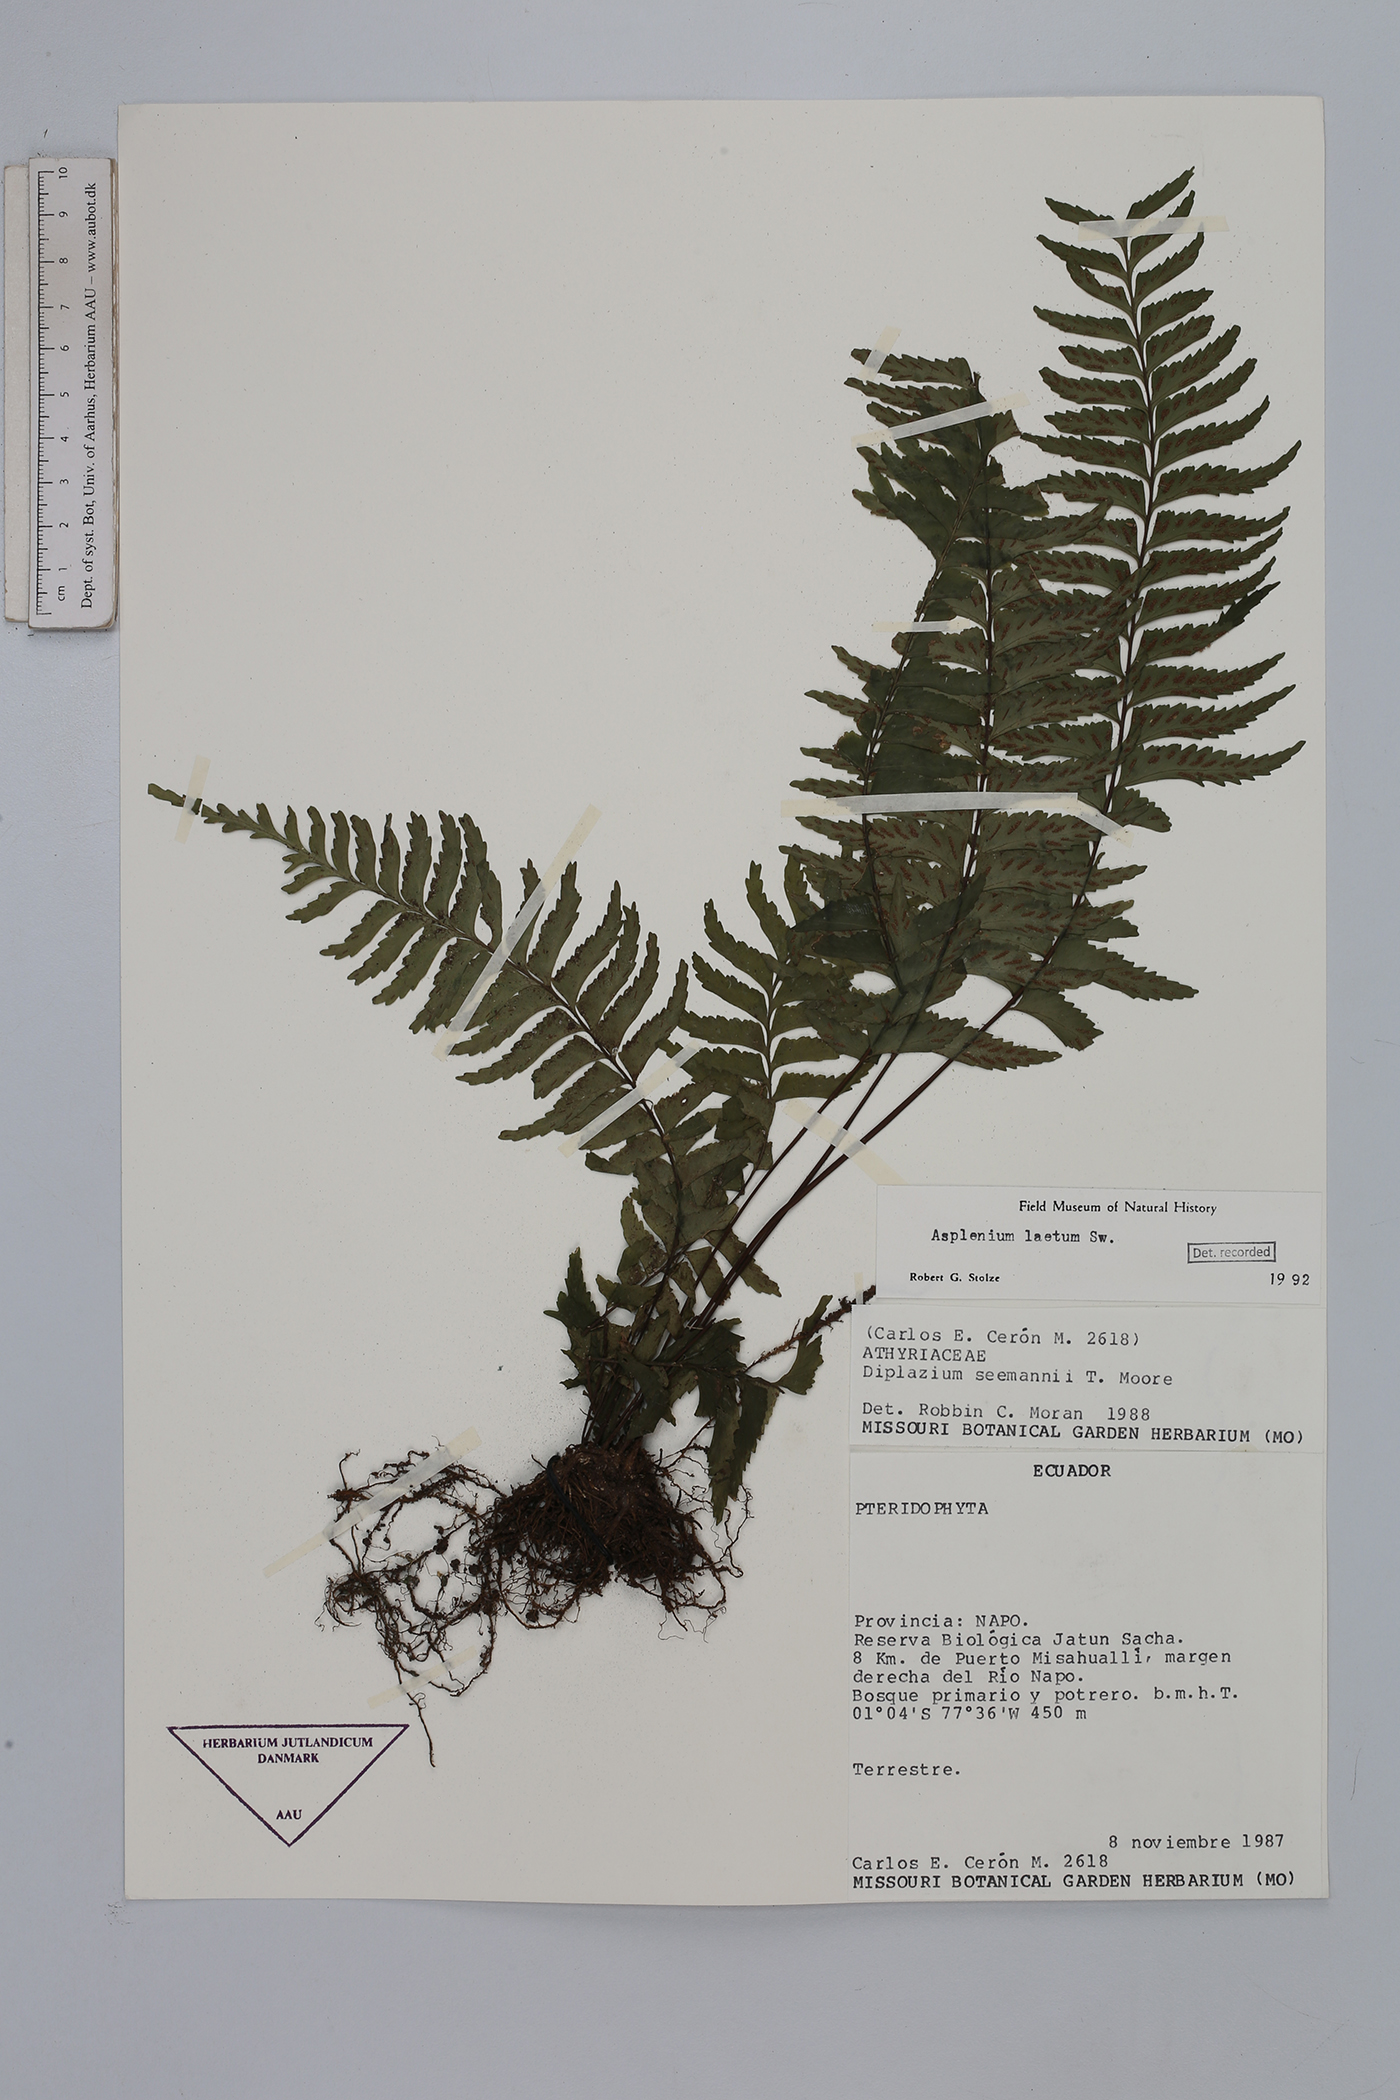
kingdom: Plantae
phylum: Tracheophyta
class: Polypodiopsida
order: Polypodiales
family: Aspleniaceae
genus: Hymenasplenium
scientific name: Hymenasplenium laetum
